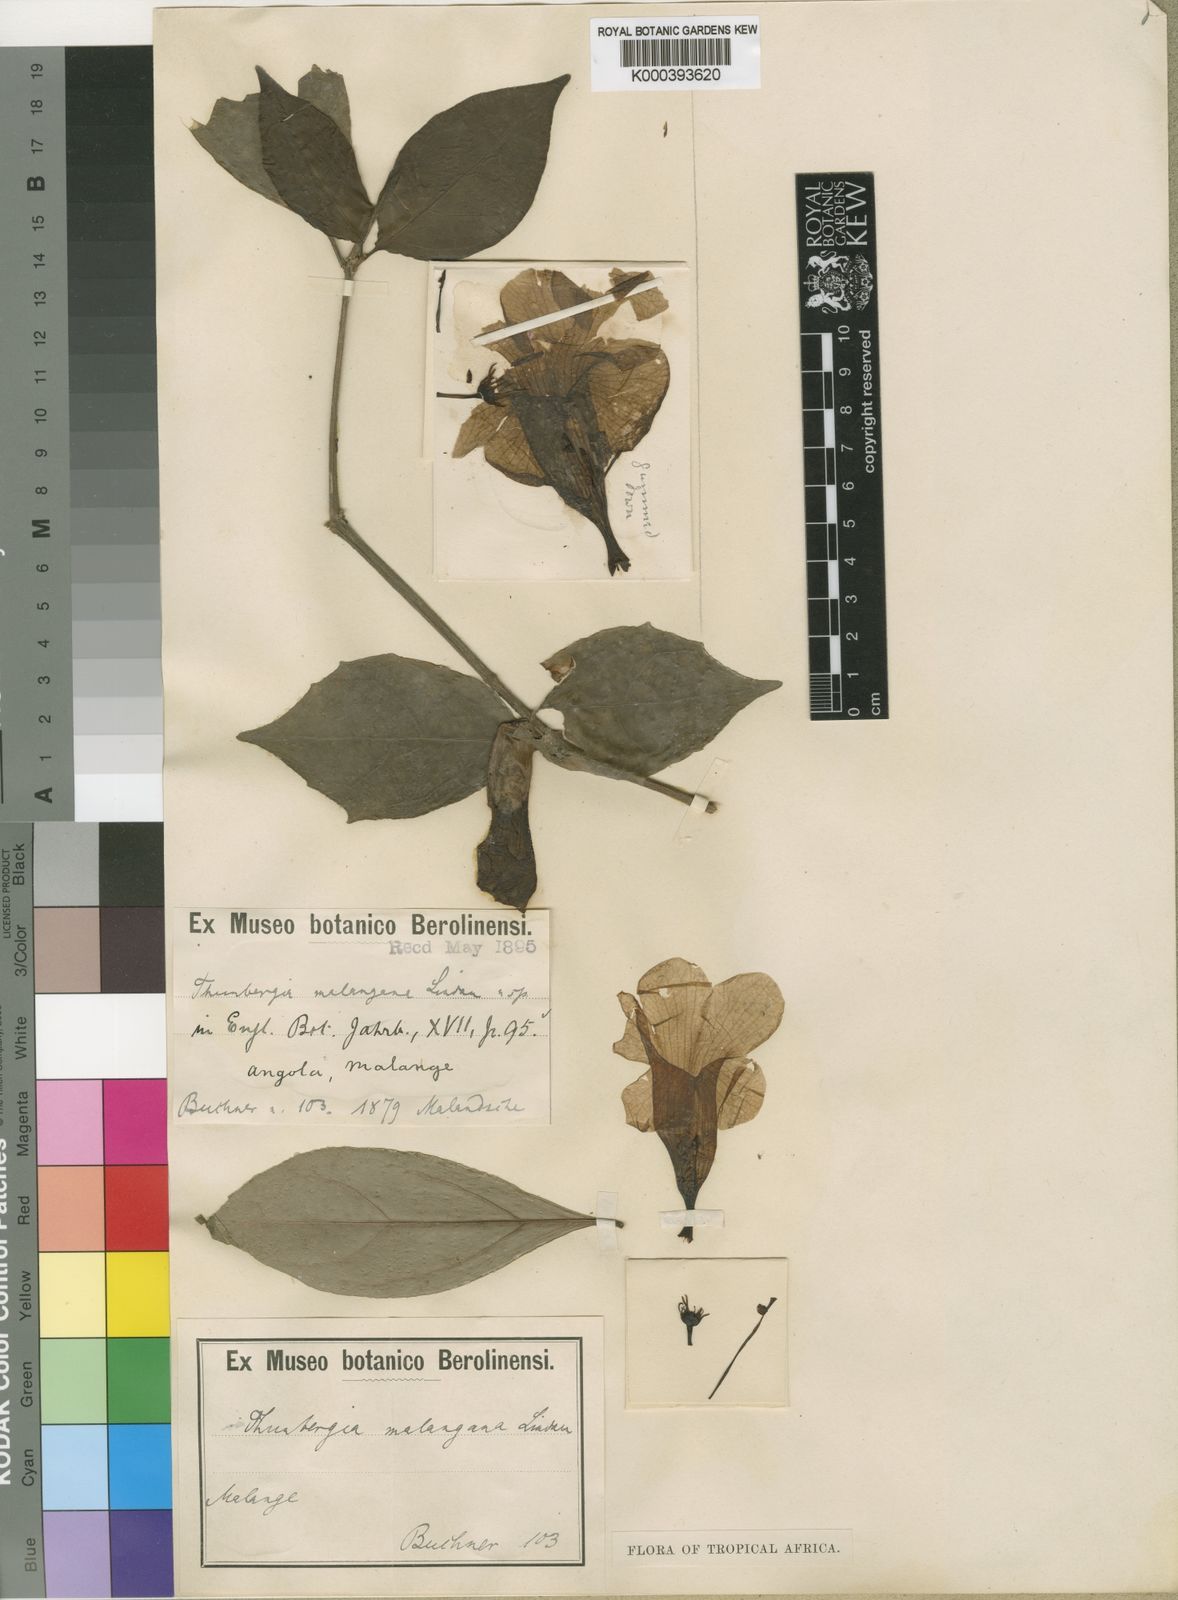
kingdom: Plantae
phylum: Tracheophyta
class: Magnoliopsida
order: Lamiales
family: Acanthaceae
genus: Thunbergia
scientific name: Thunbergia affinis
